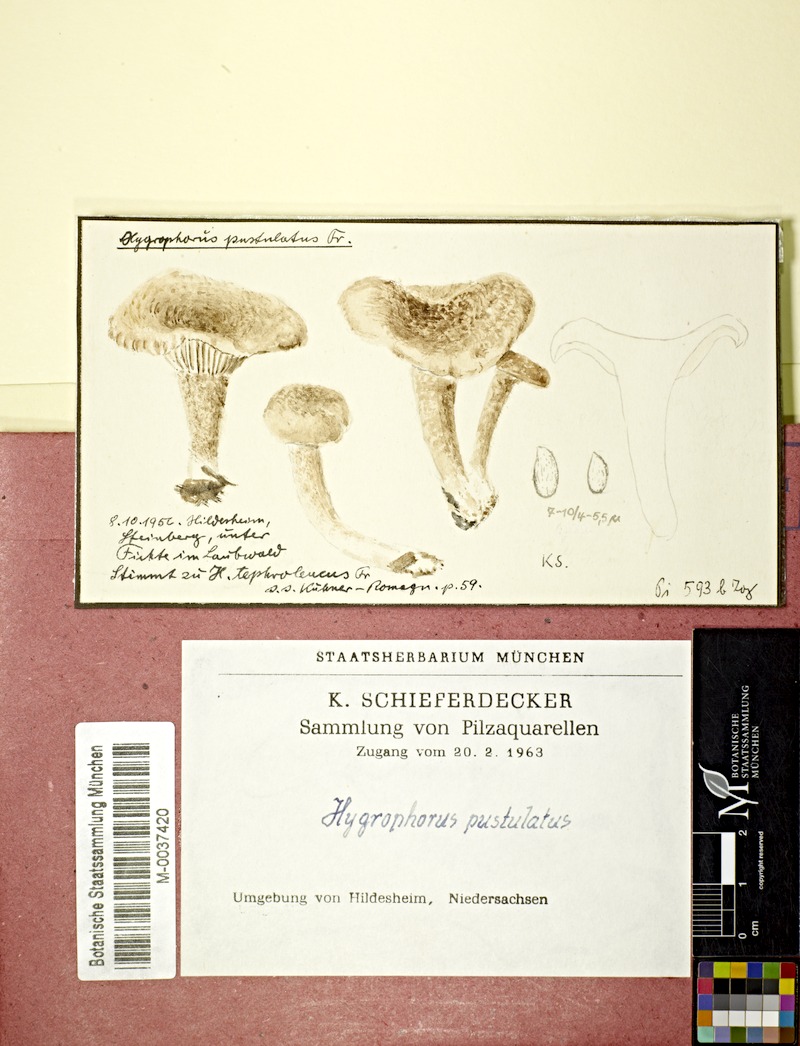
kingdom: Fungi
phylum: Basidiomycota
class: Agaricomycetes
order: Agaricales
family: Hygrophoraceae
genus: Hygrophorus
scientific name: Hygrophorus pustulatus
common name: Blistered woodwax
